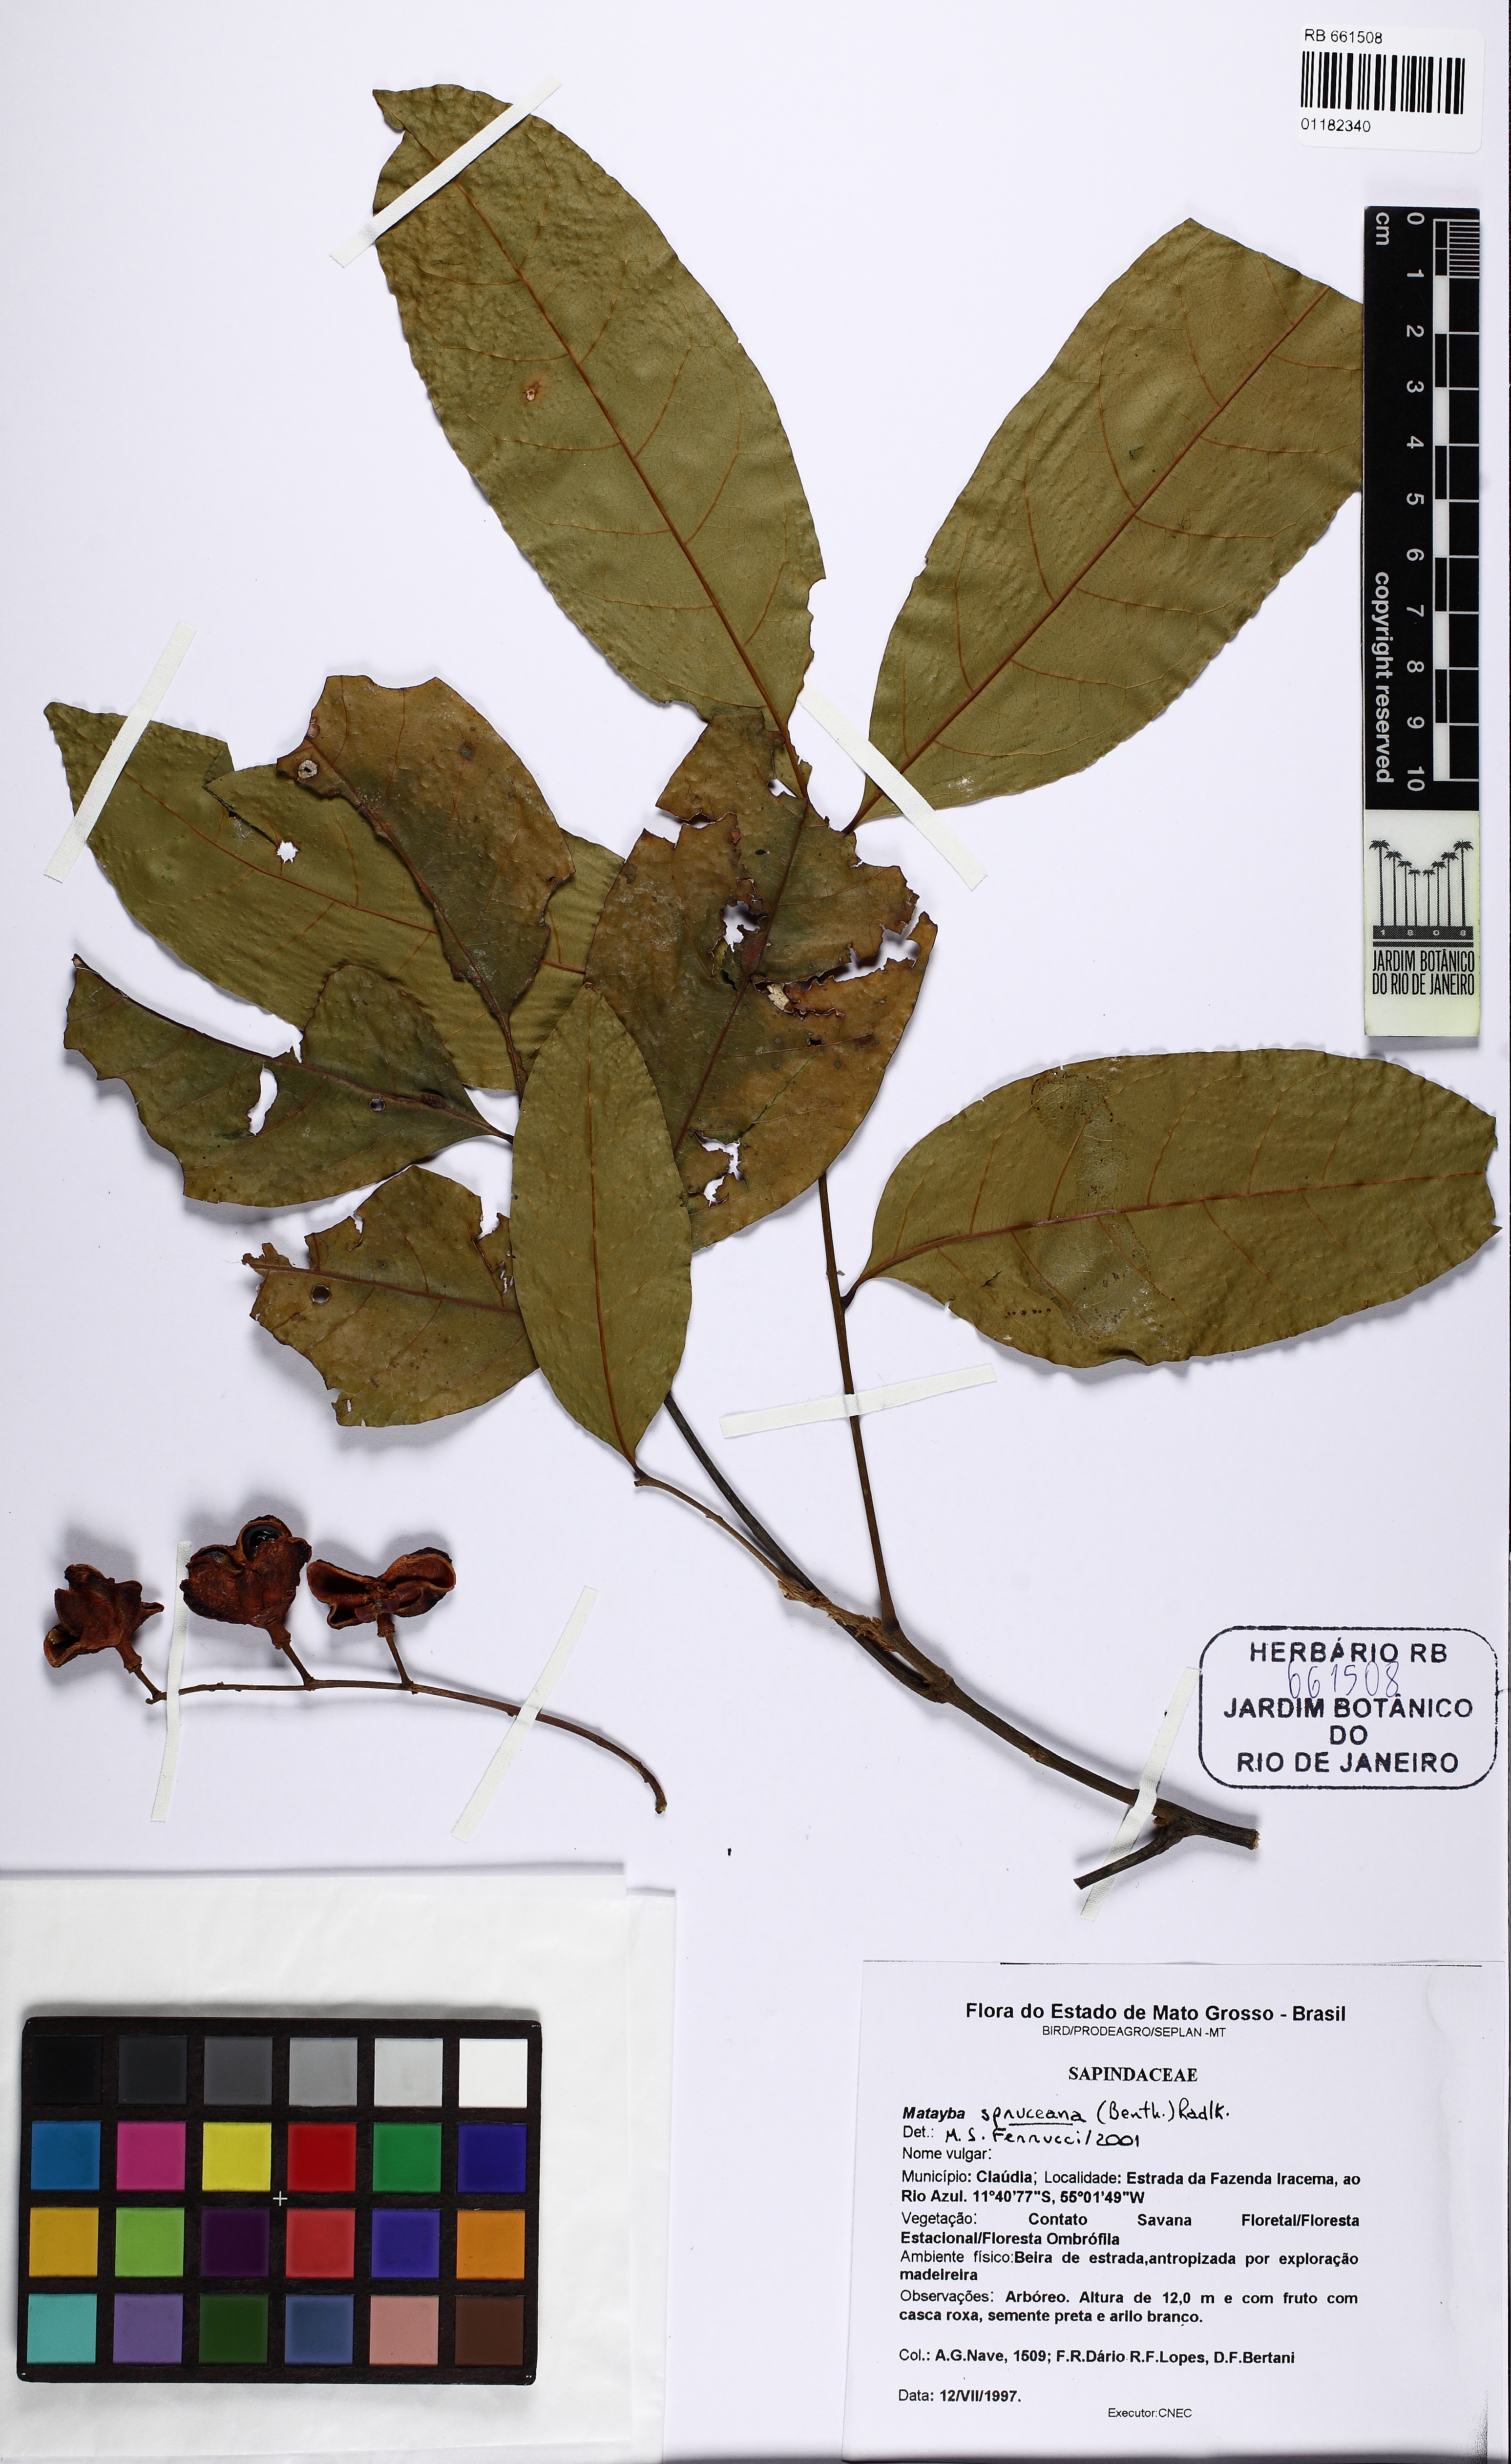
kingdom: Plantae
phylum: Tracheophyta
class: Magnoliopsida
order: Sapindales
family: Sapindaceae
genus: Matayba
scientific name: Matayba spruceana
